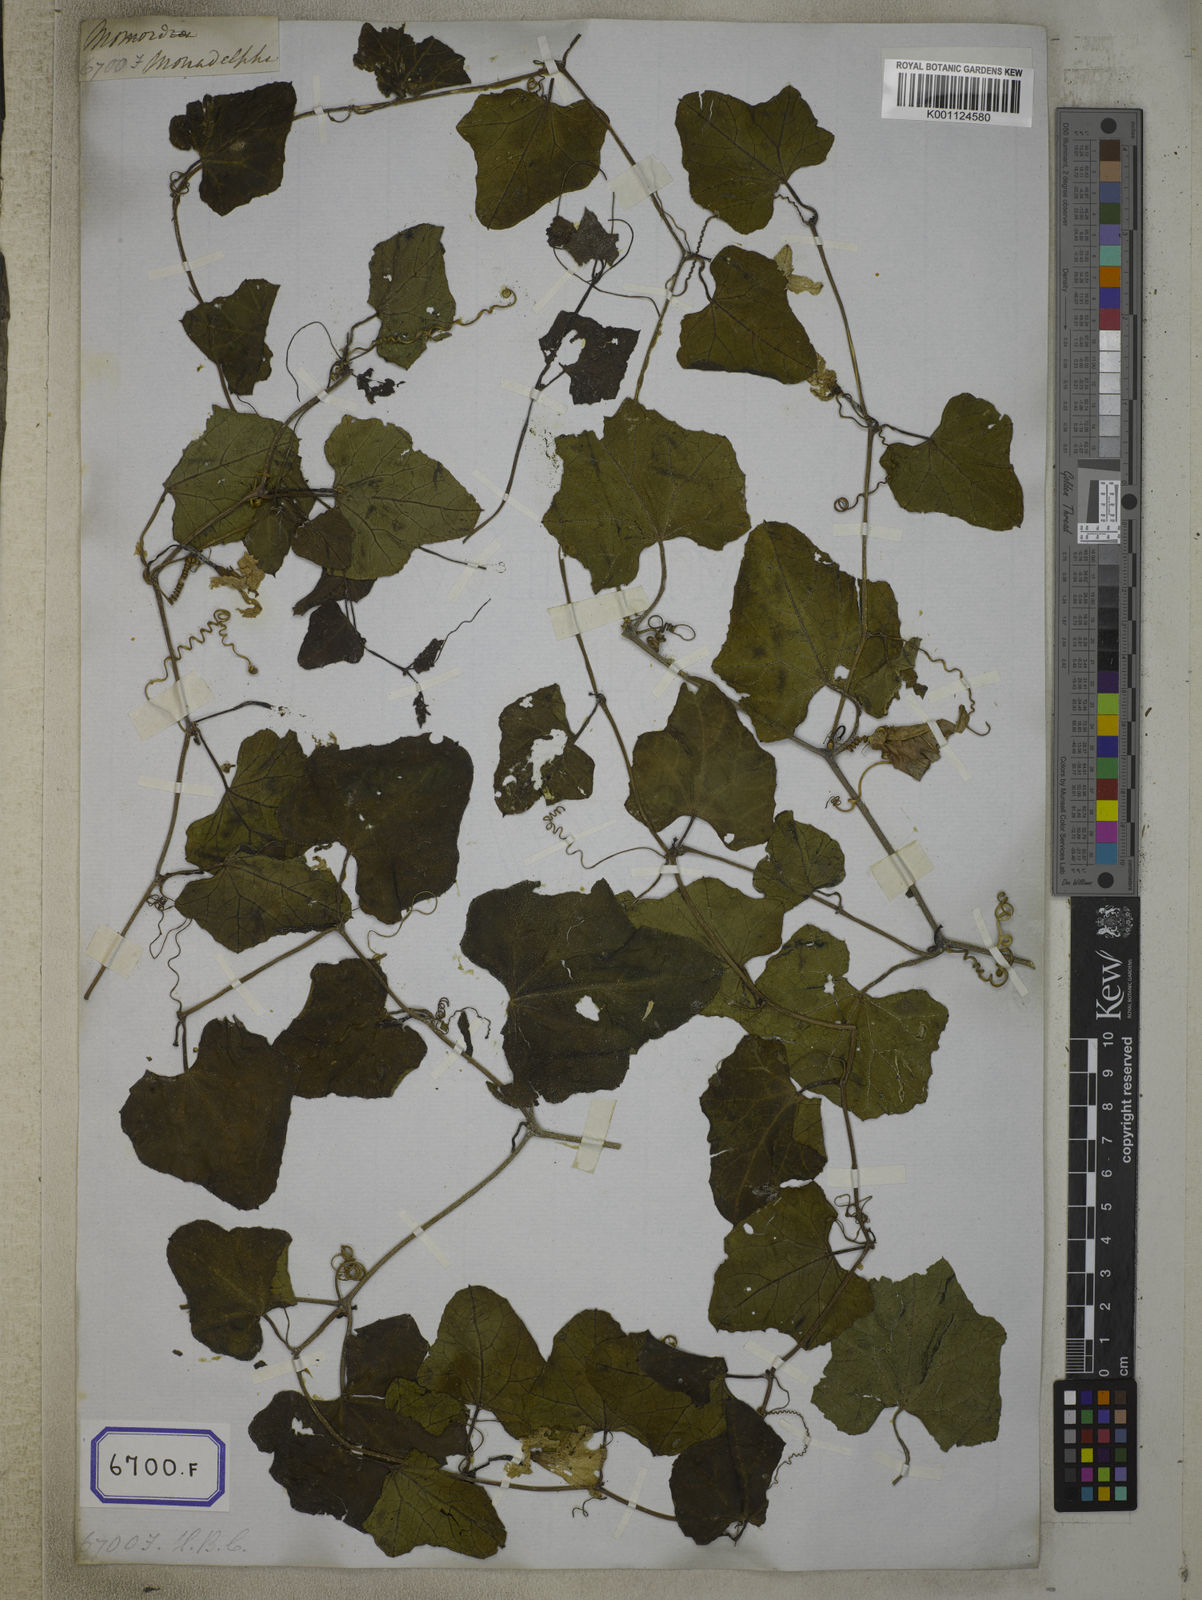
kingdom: Plantae
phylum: Tracheophyta
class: Magnoliopsida
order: Cucurbitales
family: Cucurbitaceae
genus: Bryonia
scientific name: Bryonia
